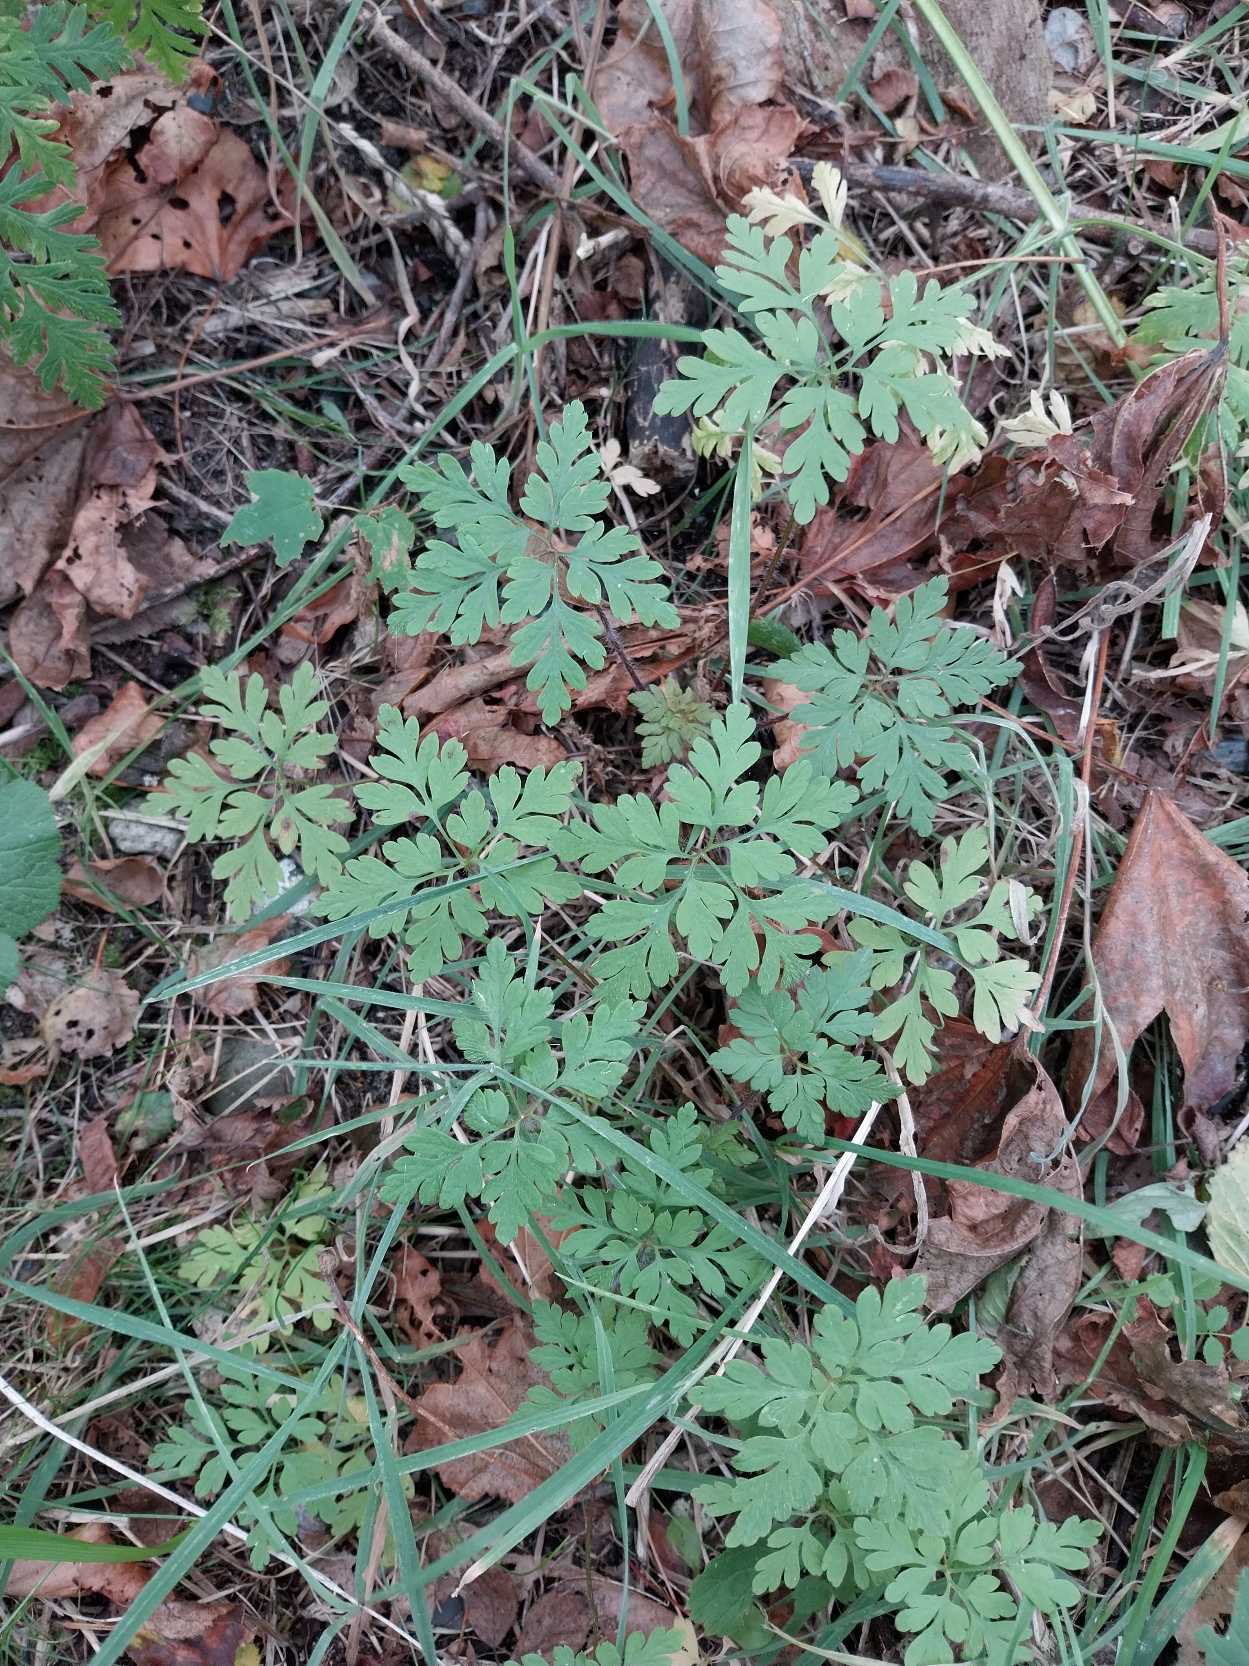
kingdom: Plantae
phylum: Tracheophyta
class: Magnoliopsida
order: Geraniales
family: Geraniaceae
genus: Geranium
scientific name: Geranium robertianum
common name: Stinkende storkenæb
